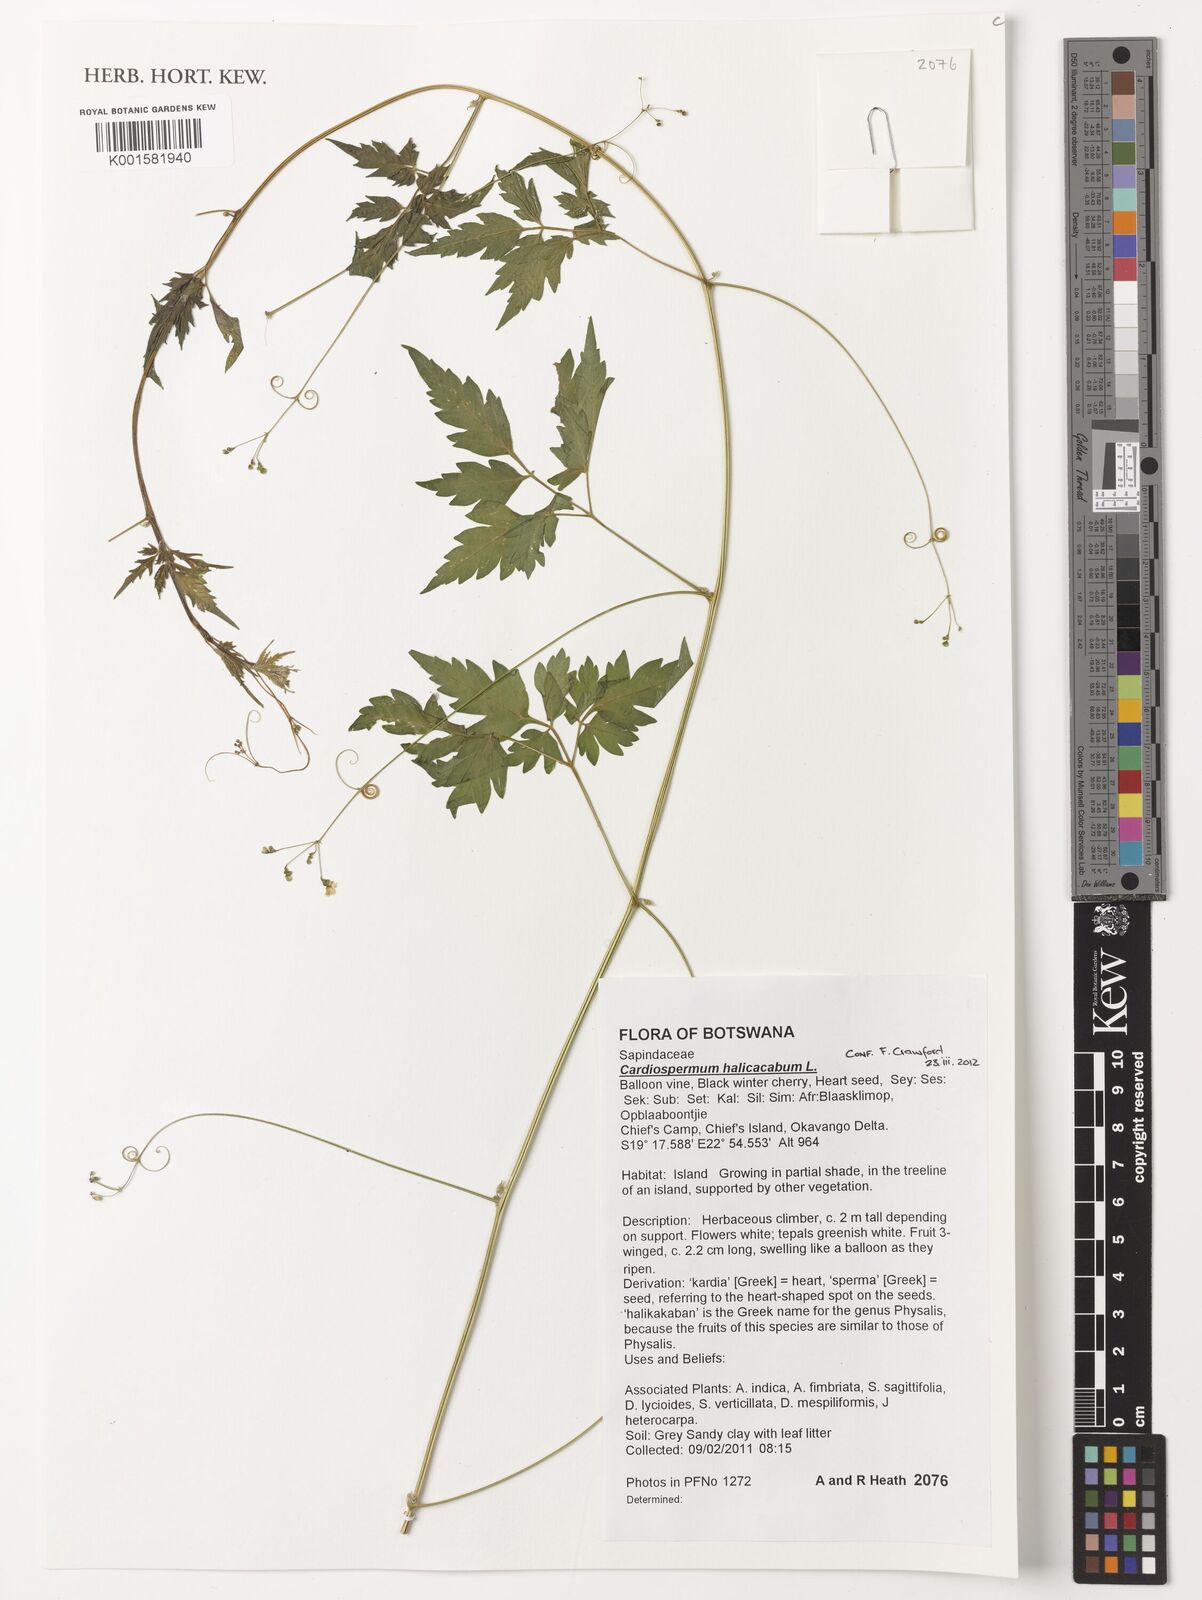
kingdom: Plantae
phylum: Tracheophyta
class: Magnoliopsida
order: Sapindales
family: Sapindaceae
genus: Cardiospermum
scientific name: Cardiospermum halicacabum
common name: Balloon vine
